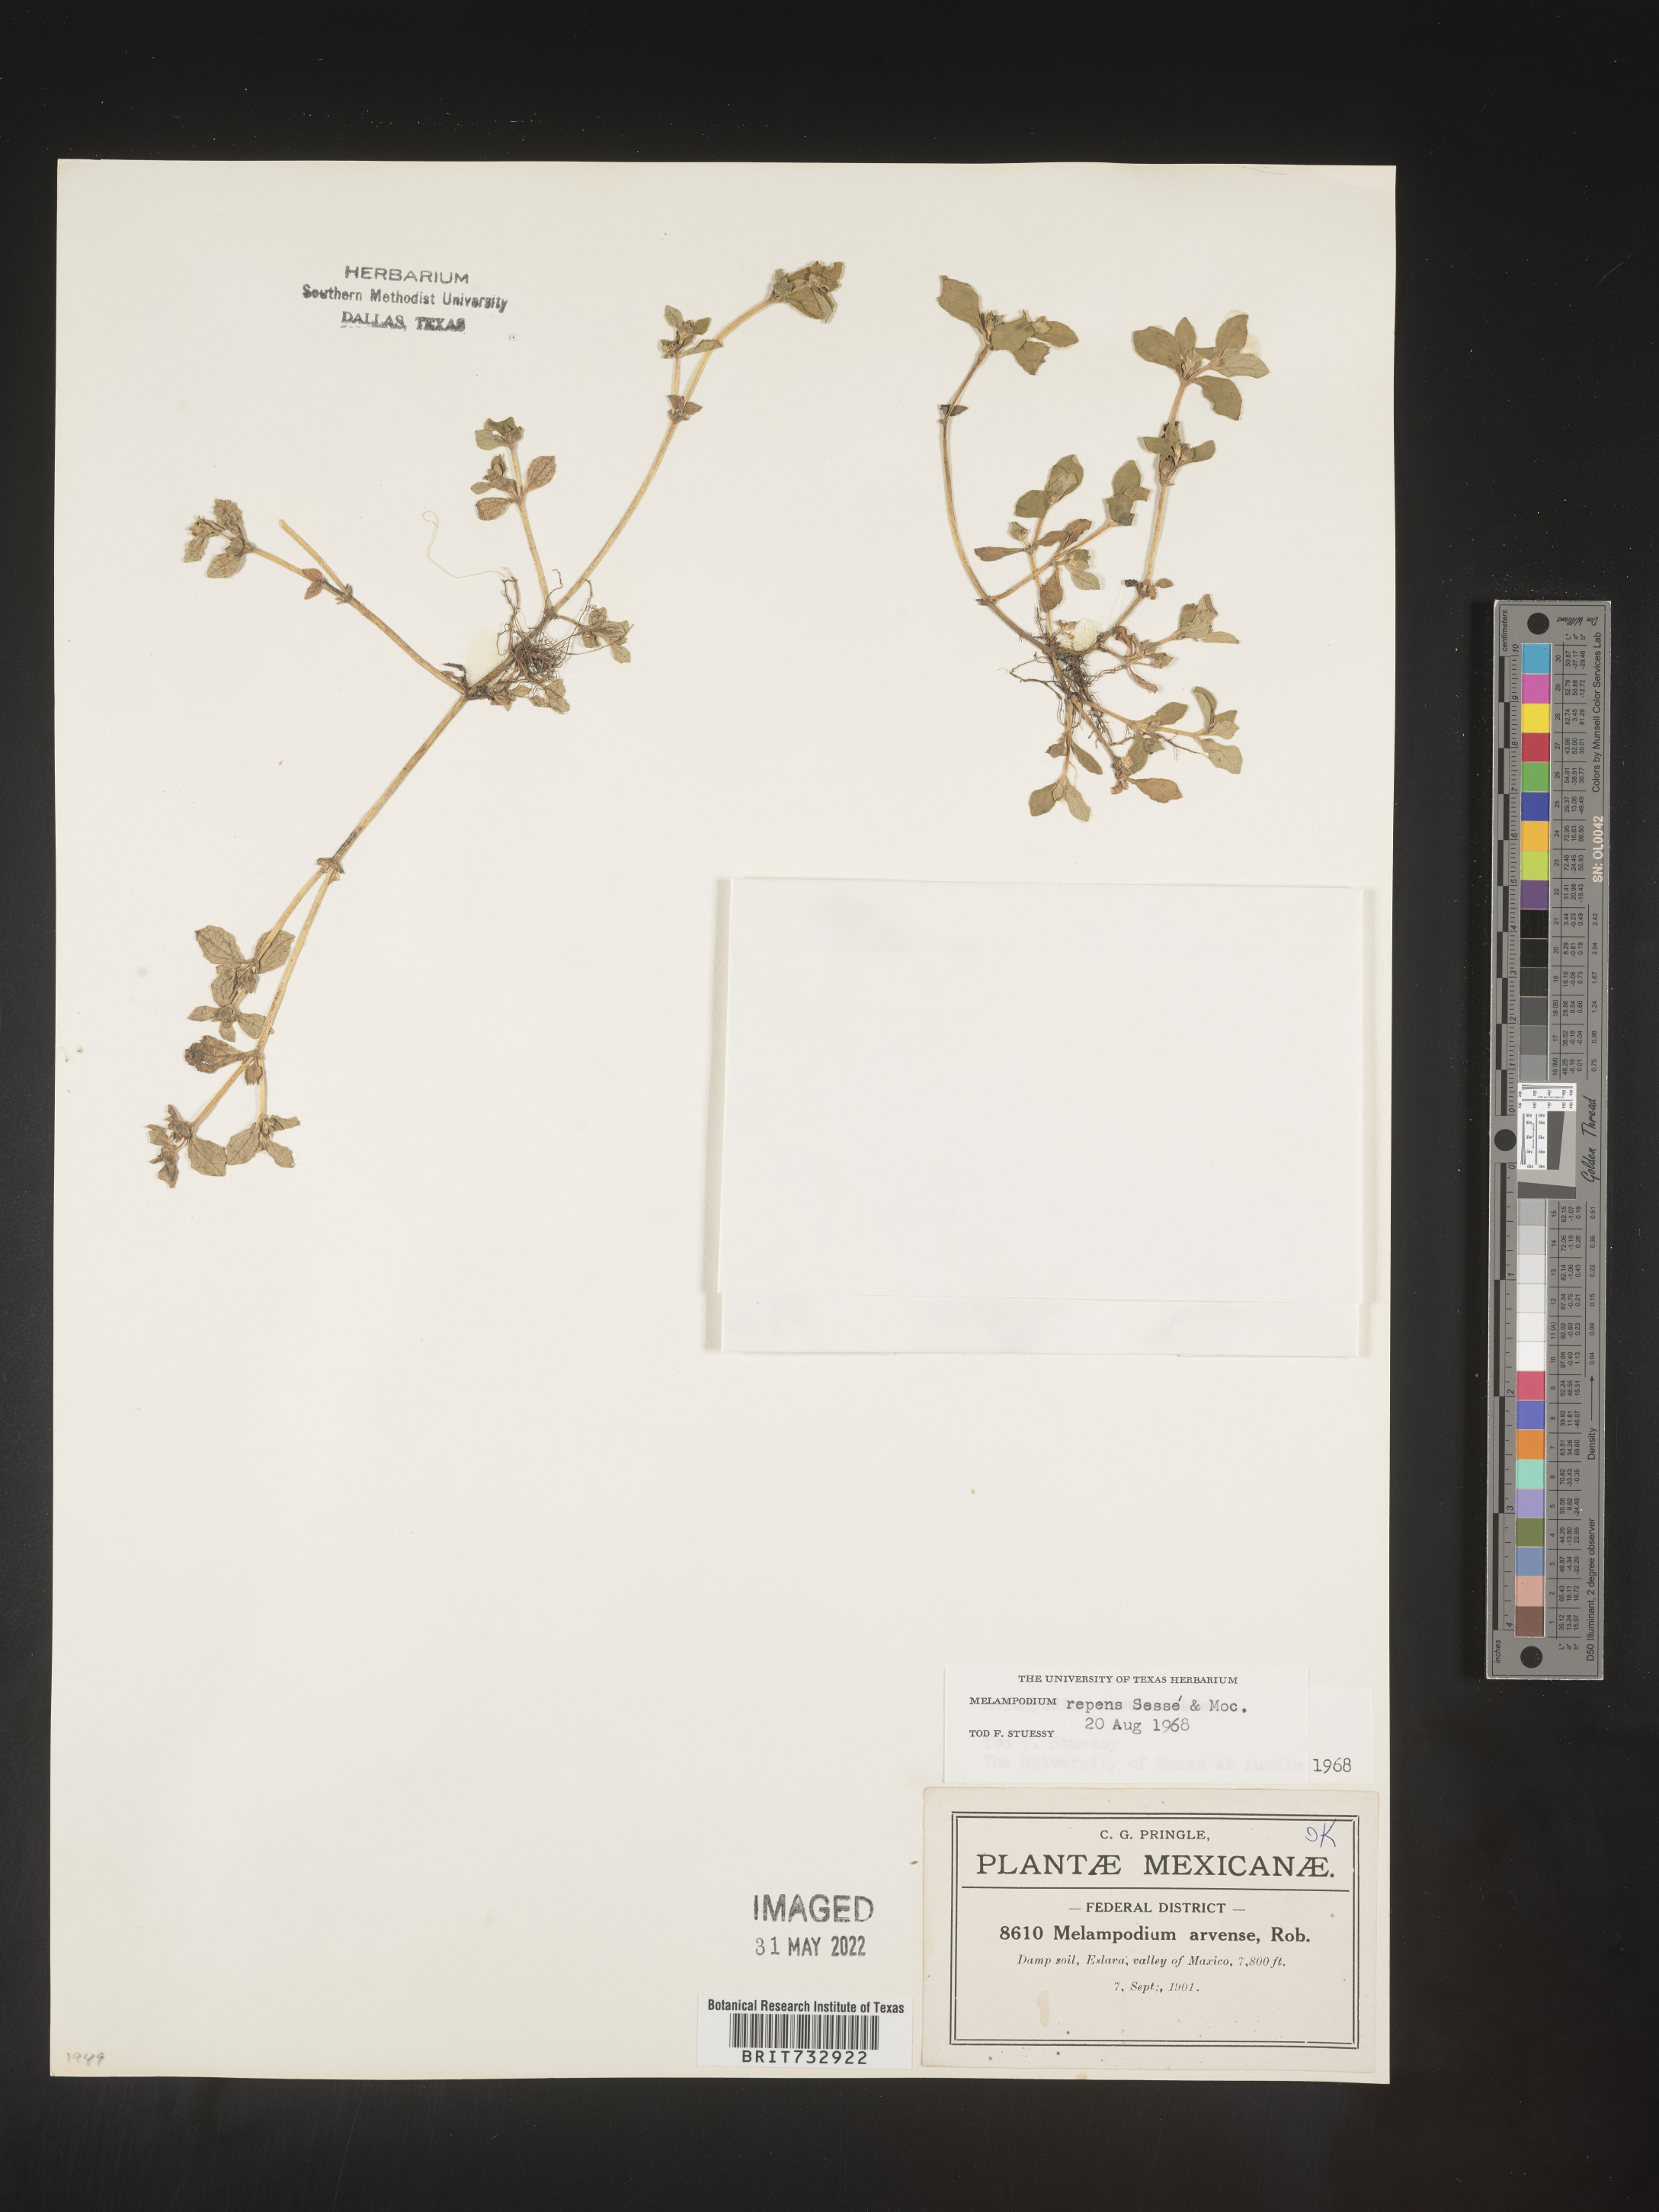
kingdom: Plantae
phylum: Tracheophyta
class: Magnoliopsida
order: Asterales
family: Asteraceae
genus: Melampodium
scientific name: Melampodium
